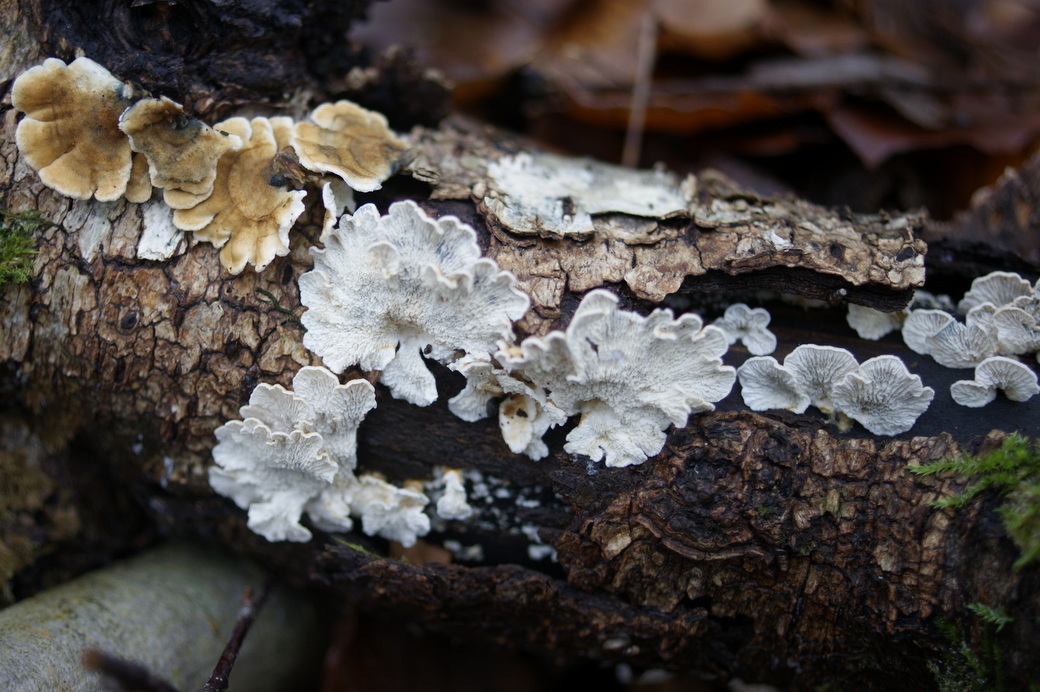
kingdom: Fungi
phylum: Basidiomycota
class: Agaricomycetes
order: Amylocorticiales
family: Amylocorticiaceae
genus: Plicaturopsis
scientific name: Plicaturopsis crispa
